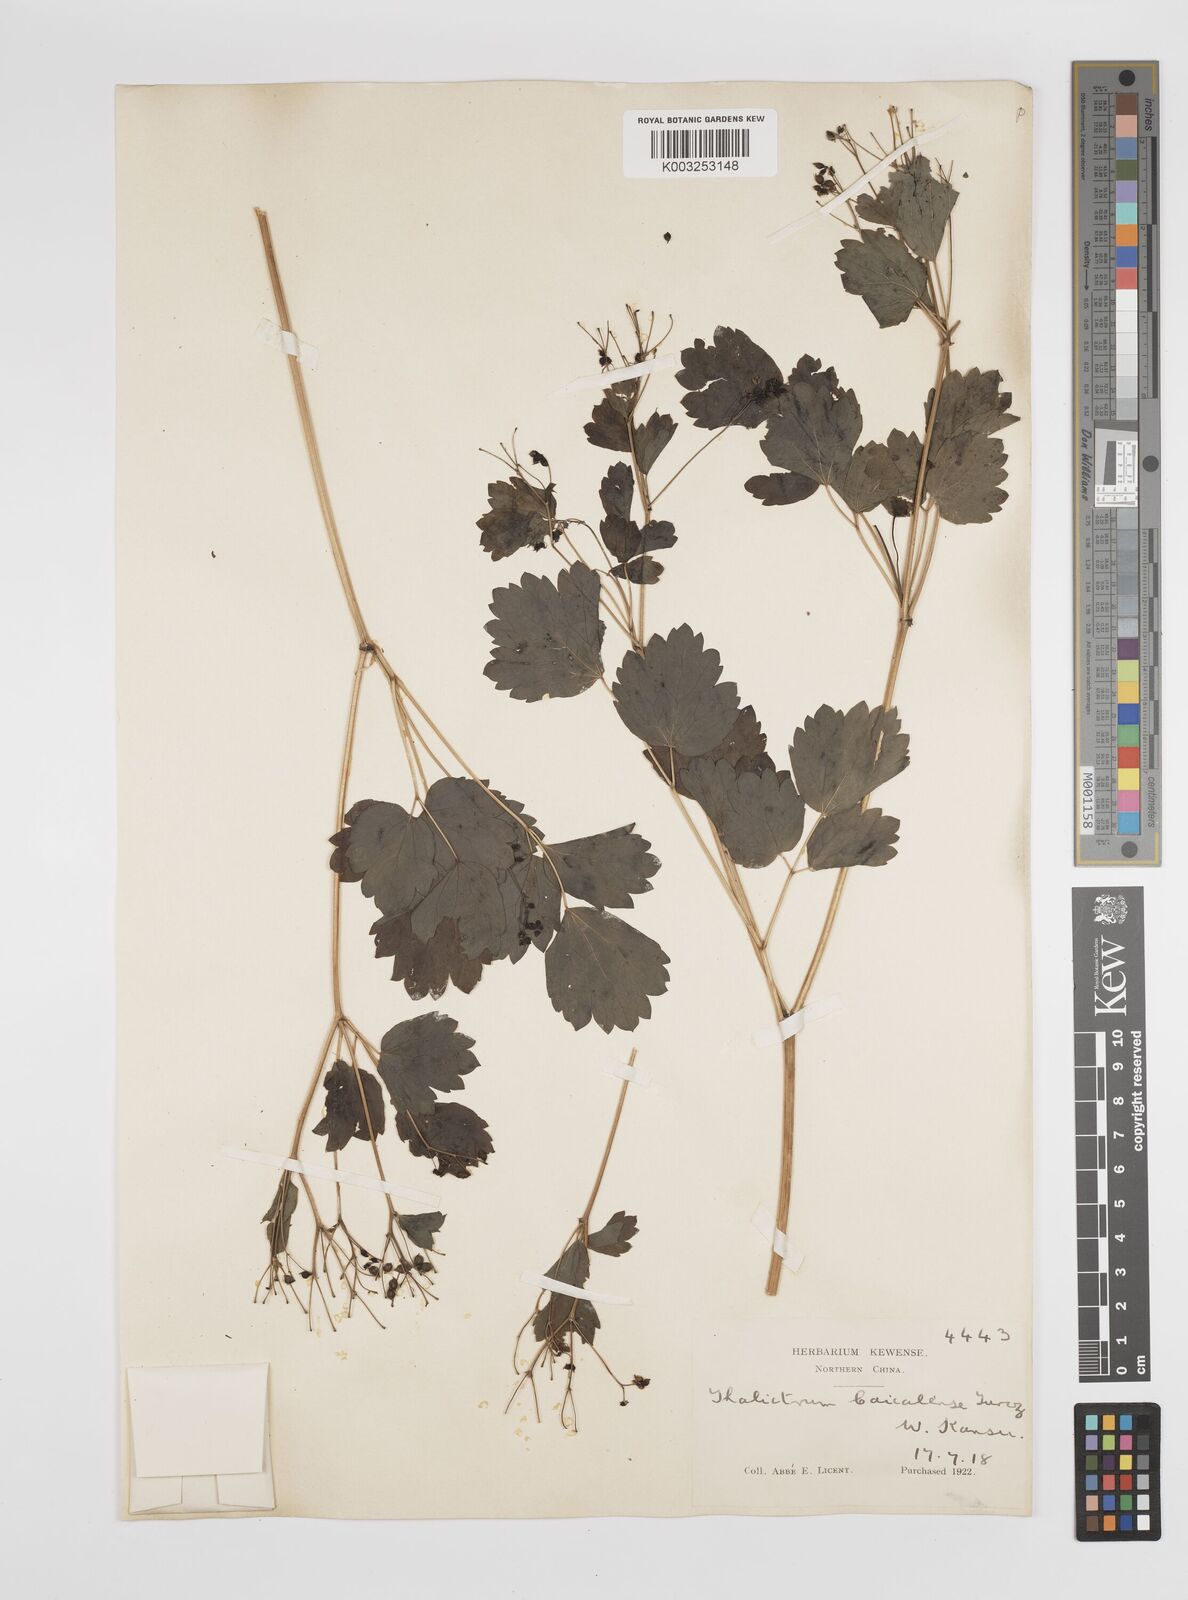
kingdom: Plantae
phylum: Tracheophyta
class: Magnoliopsida
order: Ranunculales
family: Ranunculaceae
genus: Thalictrum
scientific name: Thalictrum baicalense
